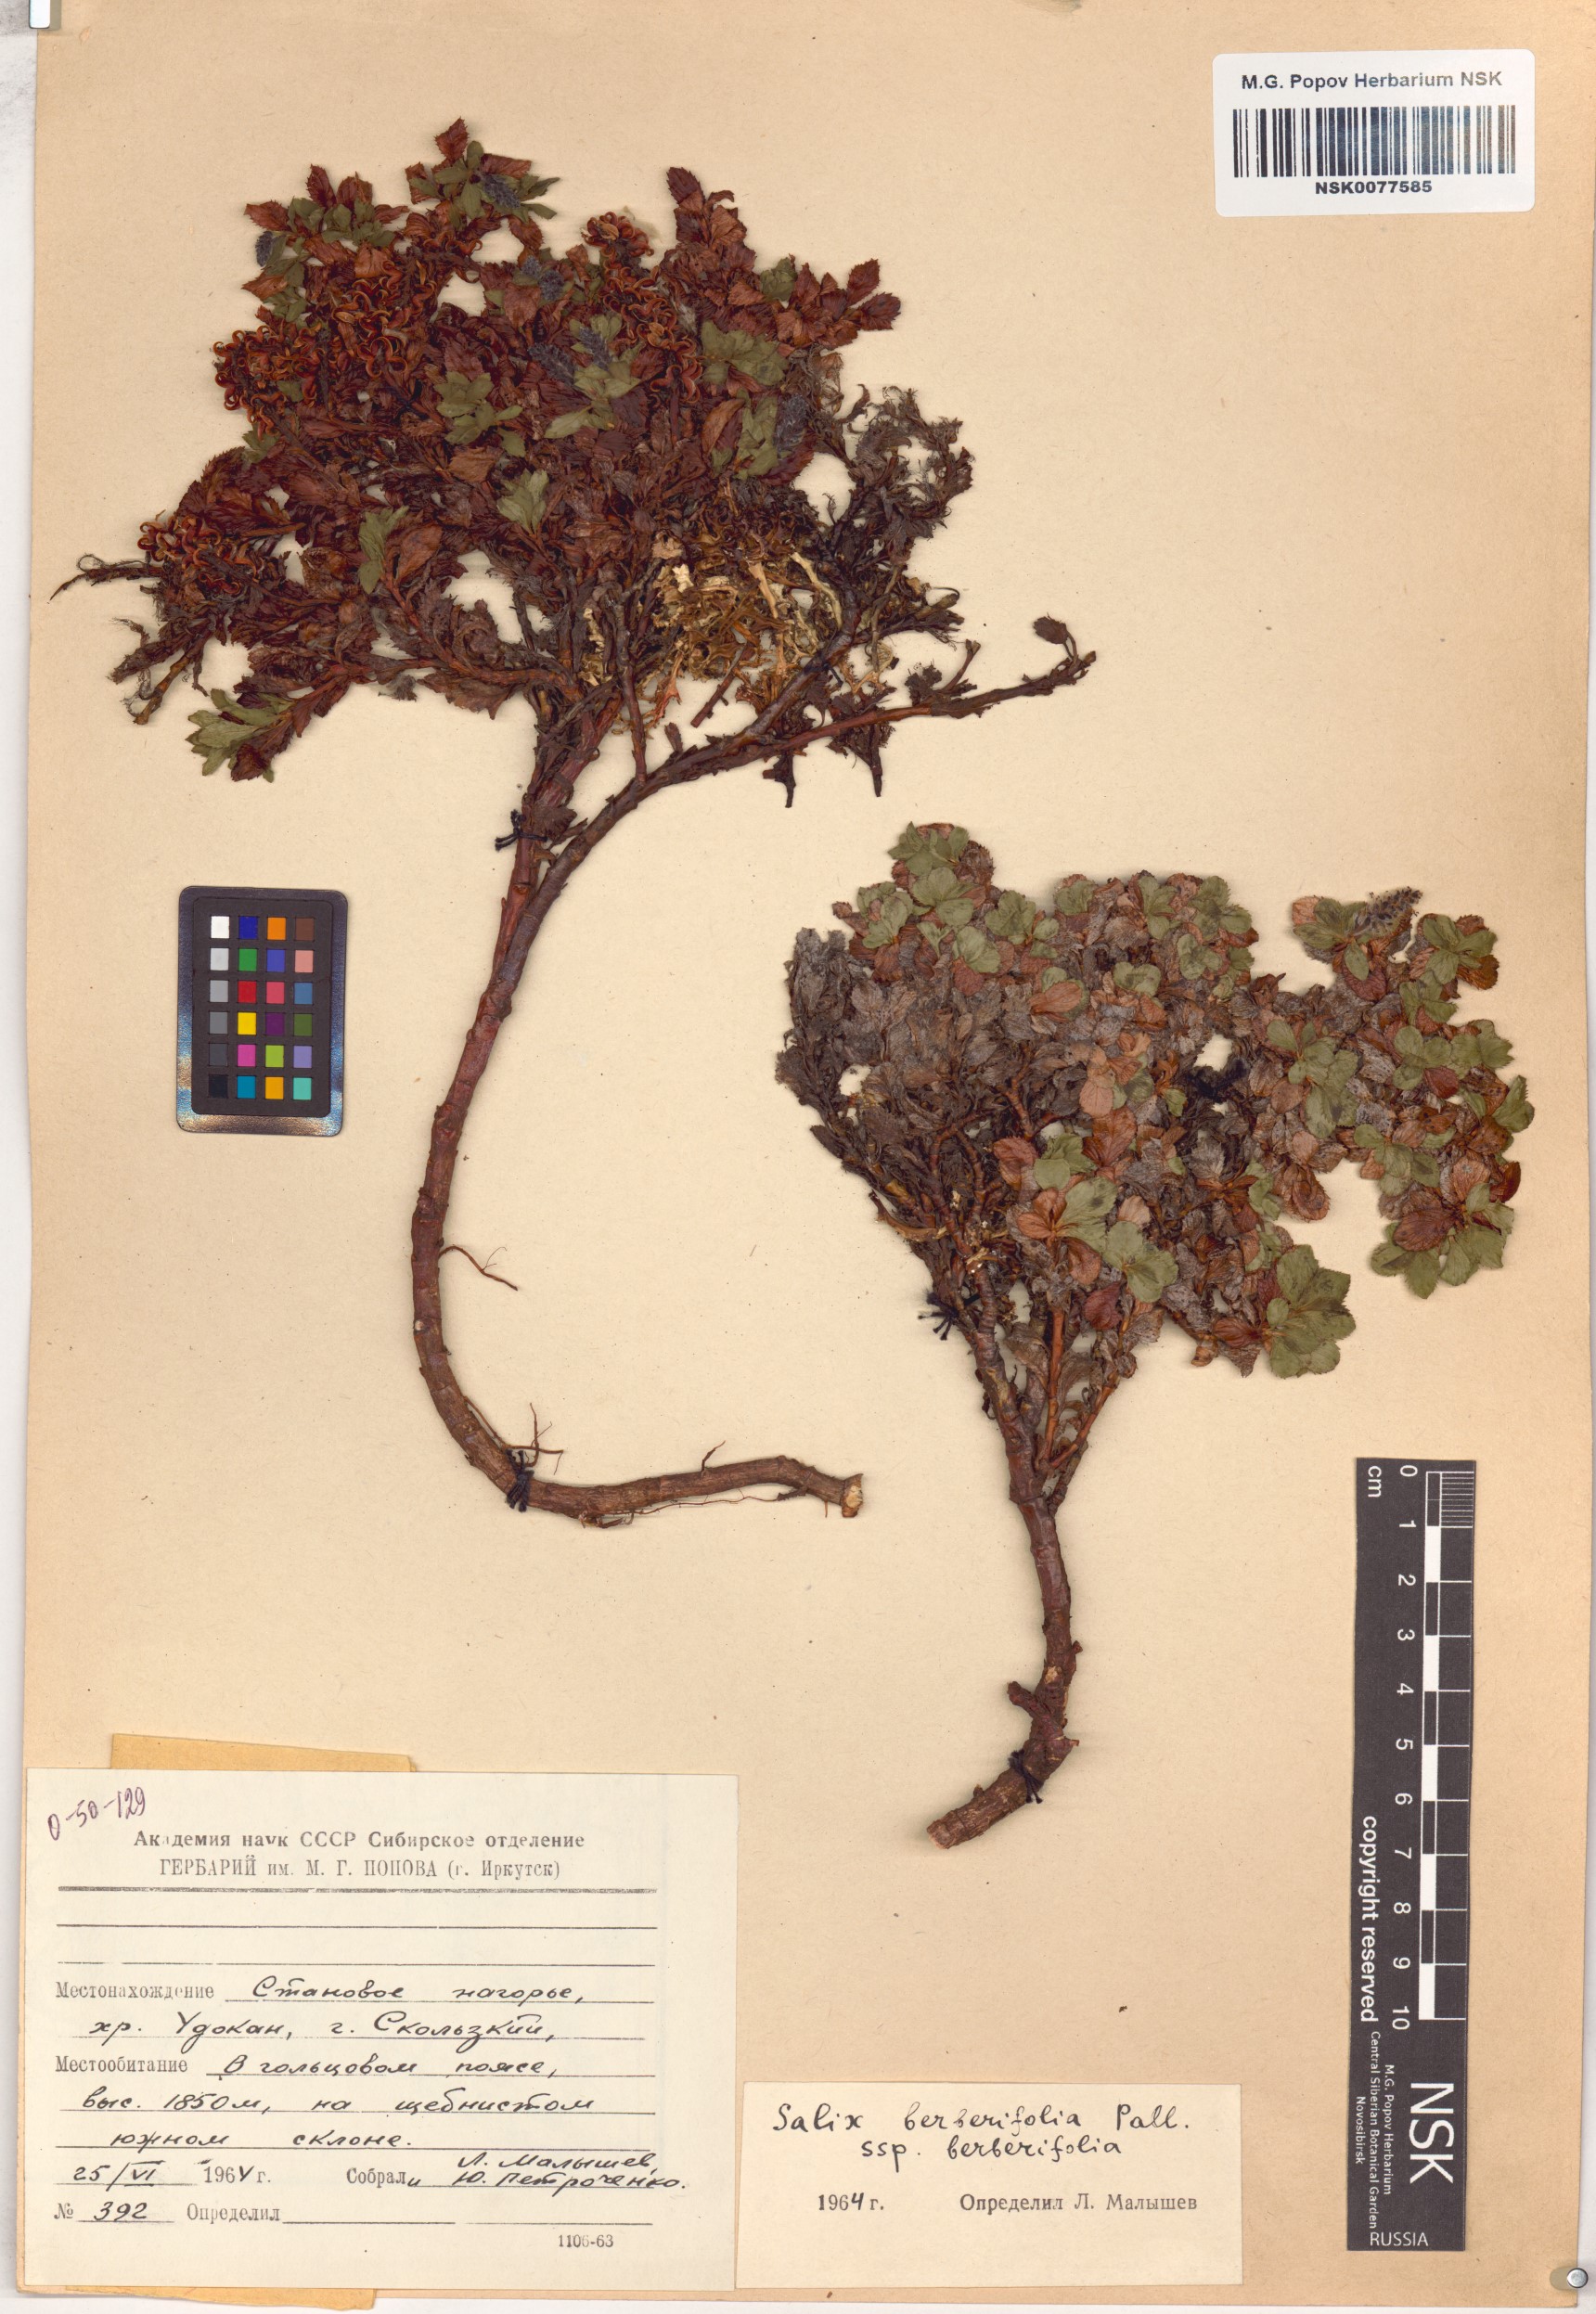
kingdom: Plantae
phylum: Tracheophyta
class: Magnoliopsida
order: Malpighiales
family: Salicaceae
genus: Salix
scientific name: Salix berberifolia
